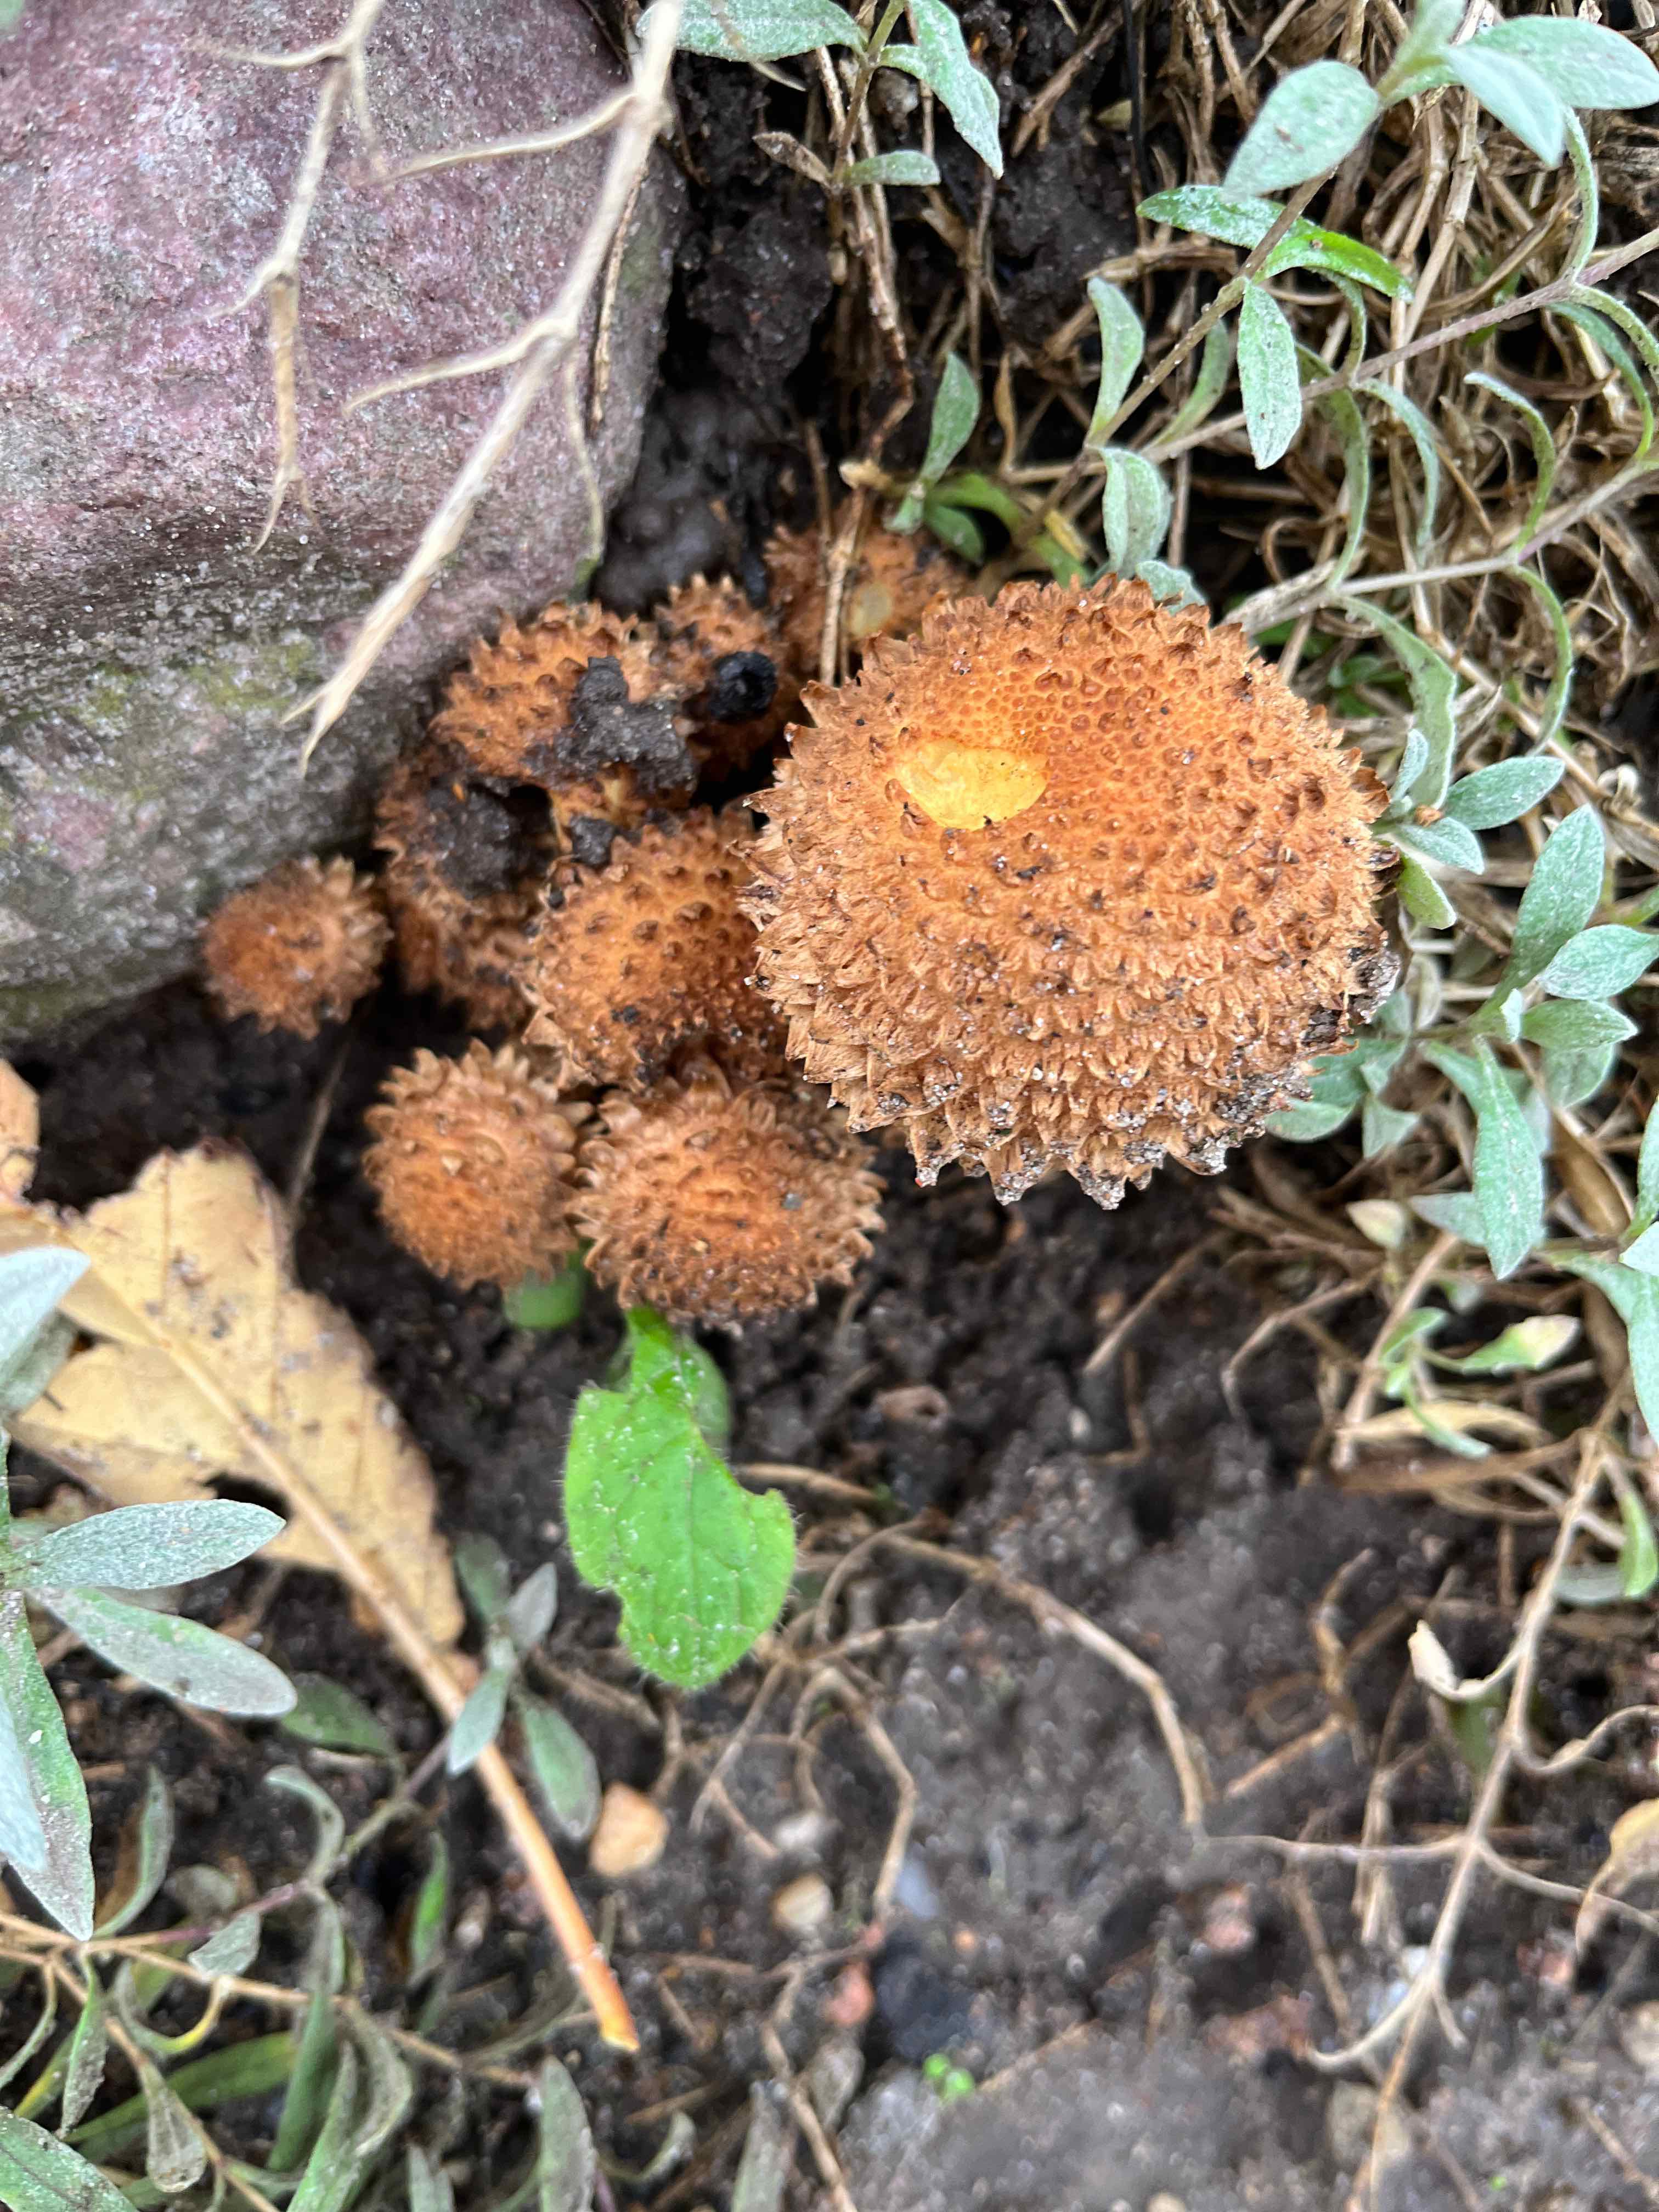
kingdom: Fungi
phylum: Basidiomycota
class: Agaricomycetes
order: Agaricales
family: Strophariaceae
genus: Pholiota
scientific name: Pholiota squarrosa
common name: krumskællet skælhat
